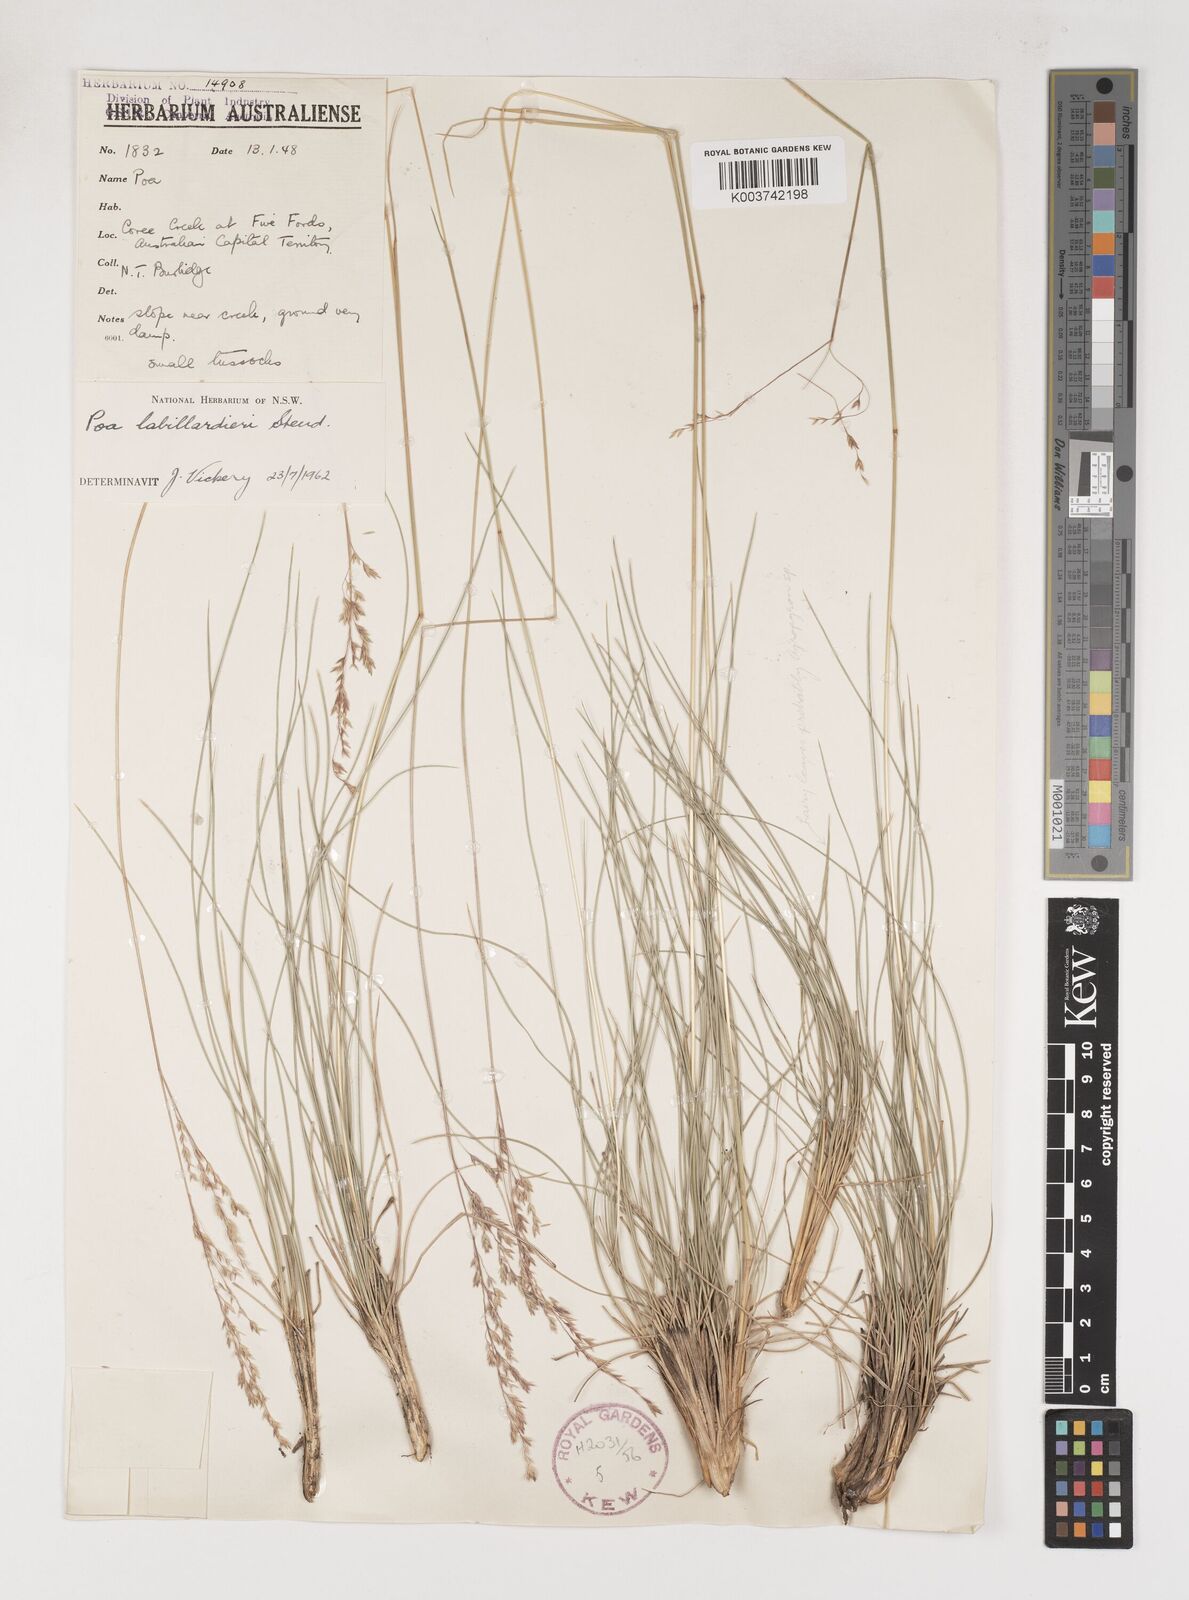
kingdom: Plantae
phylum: Tracheophyta
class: Liliopsida
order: Poales
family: Poaceae
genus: Poa
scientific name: Poa labillardierei
